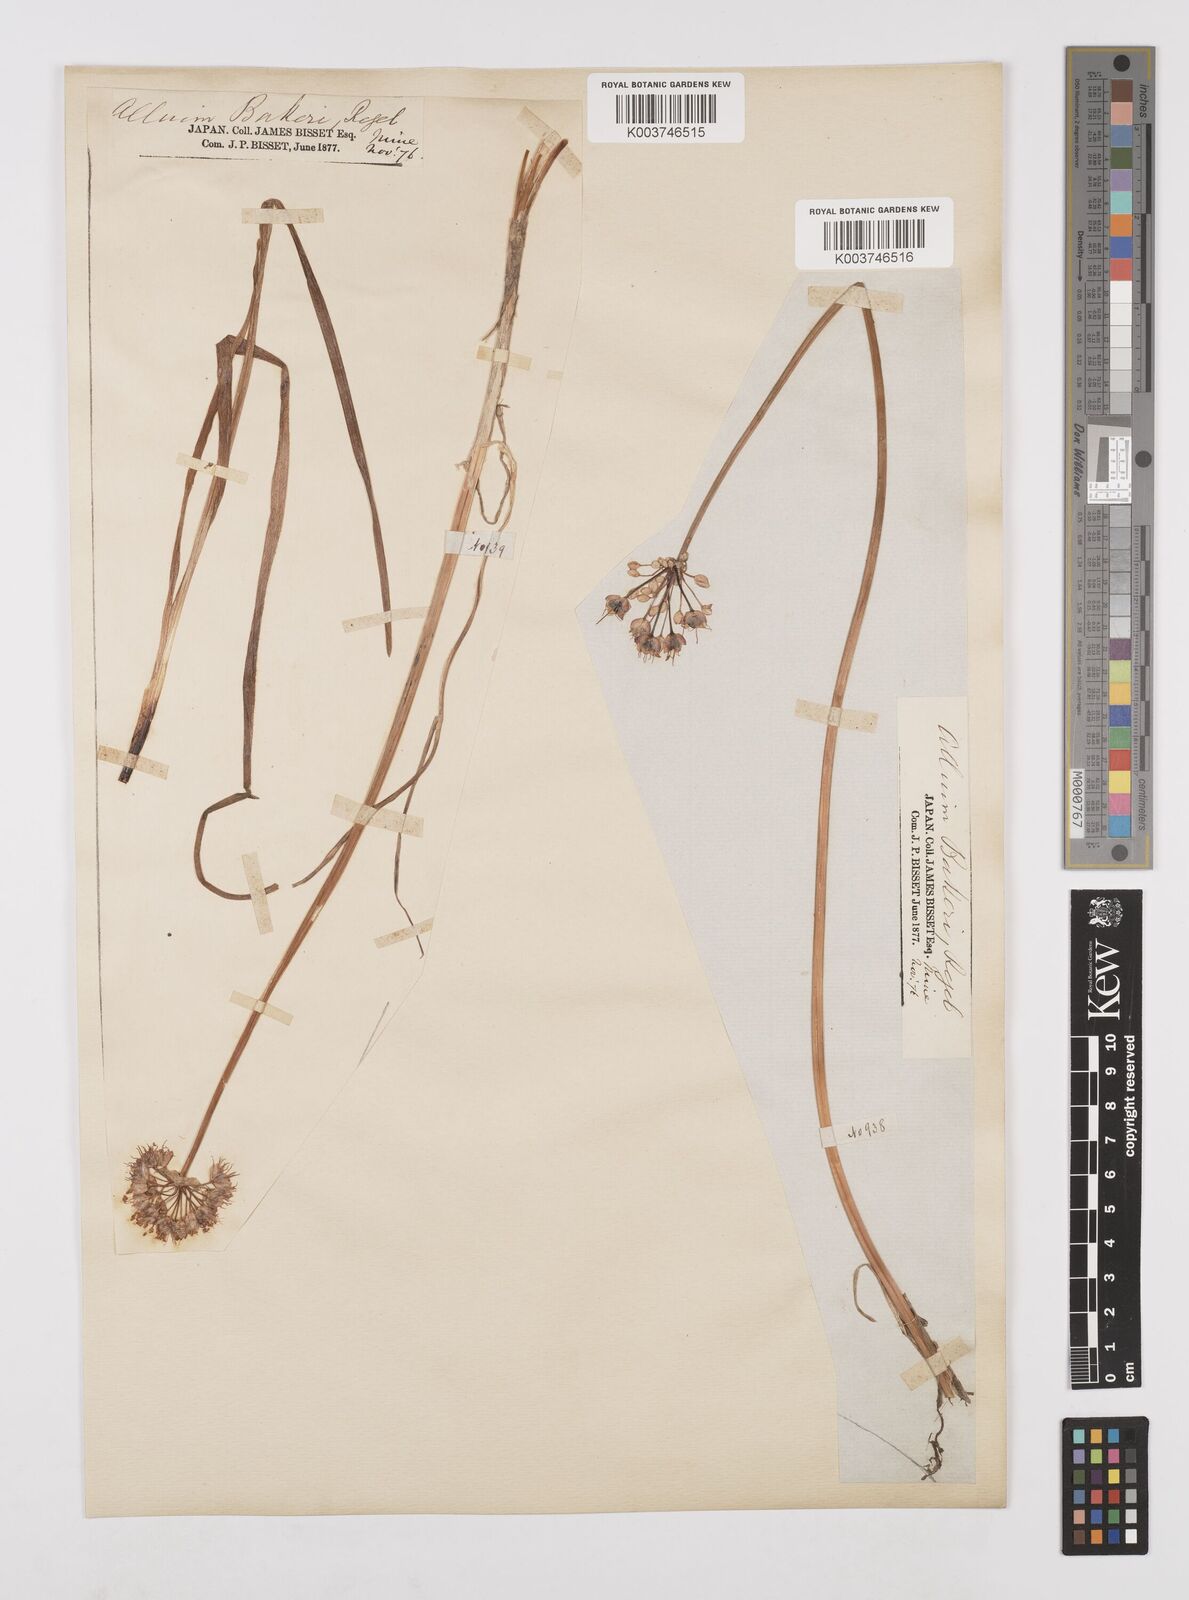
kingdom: Plantae
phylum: Tracheophyta
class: Liliopsida
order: Asparagales
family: Amaryllidaceae
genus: Allium
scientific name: Allium chinense
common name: Japanese scallion
